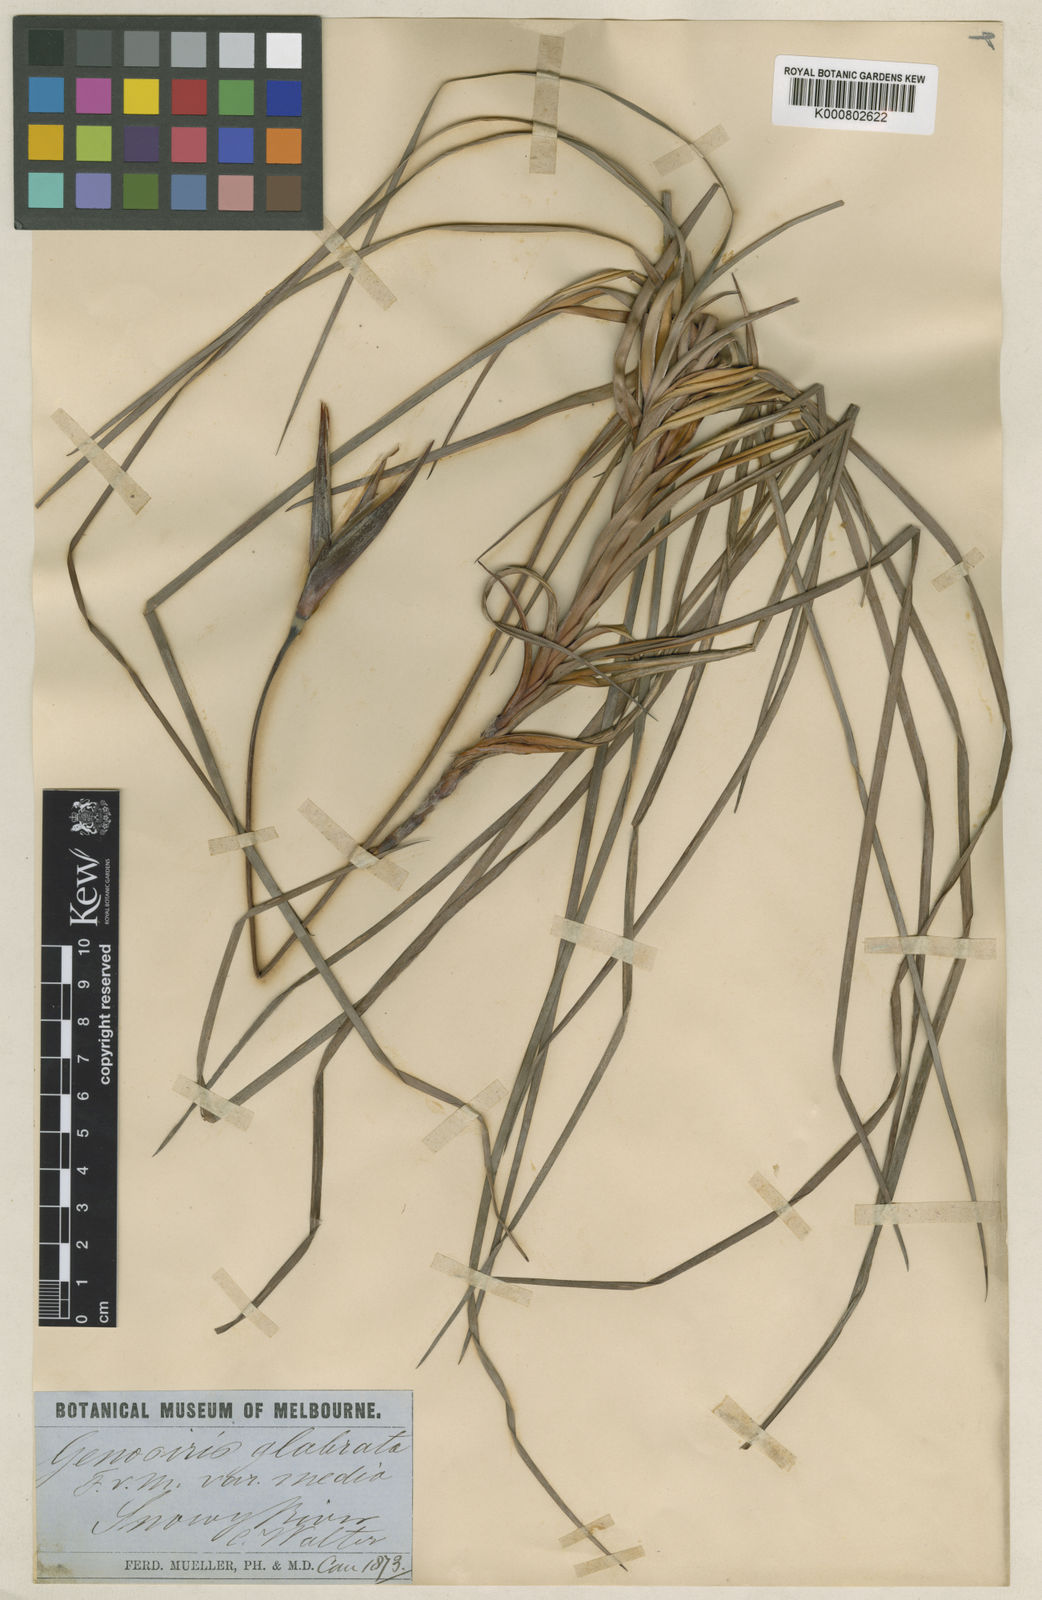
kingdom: Plantae
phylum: Tracheophyta
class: Liliopsida
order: Asparagales
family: Iridaceae
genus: Patersonia
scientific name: Patersonia glabrata
